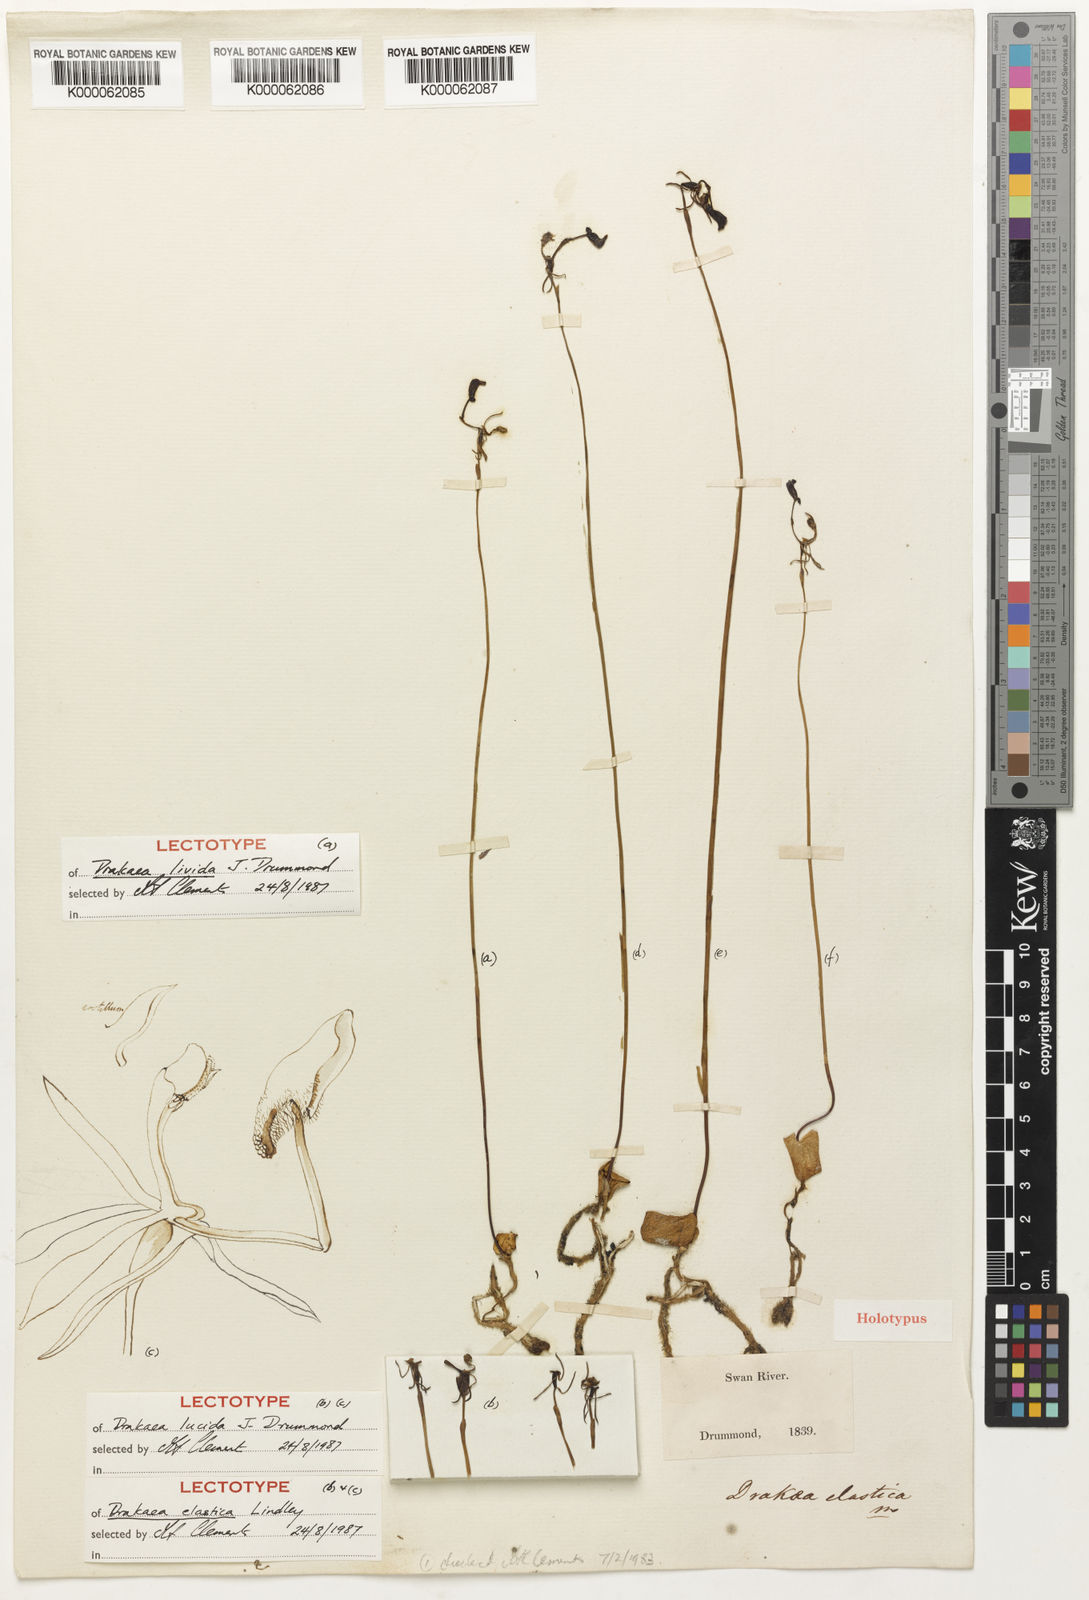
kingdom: Plantae
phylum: Tracheophyta
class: Liliopsida
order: Asparagales
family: Orchidaceae
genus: Drakaea
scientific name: Drakaea elastica
